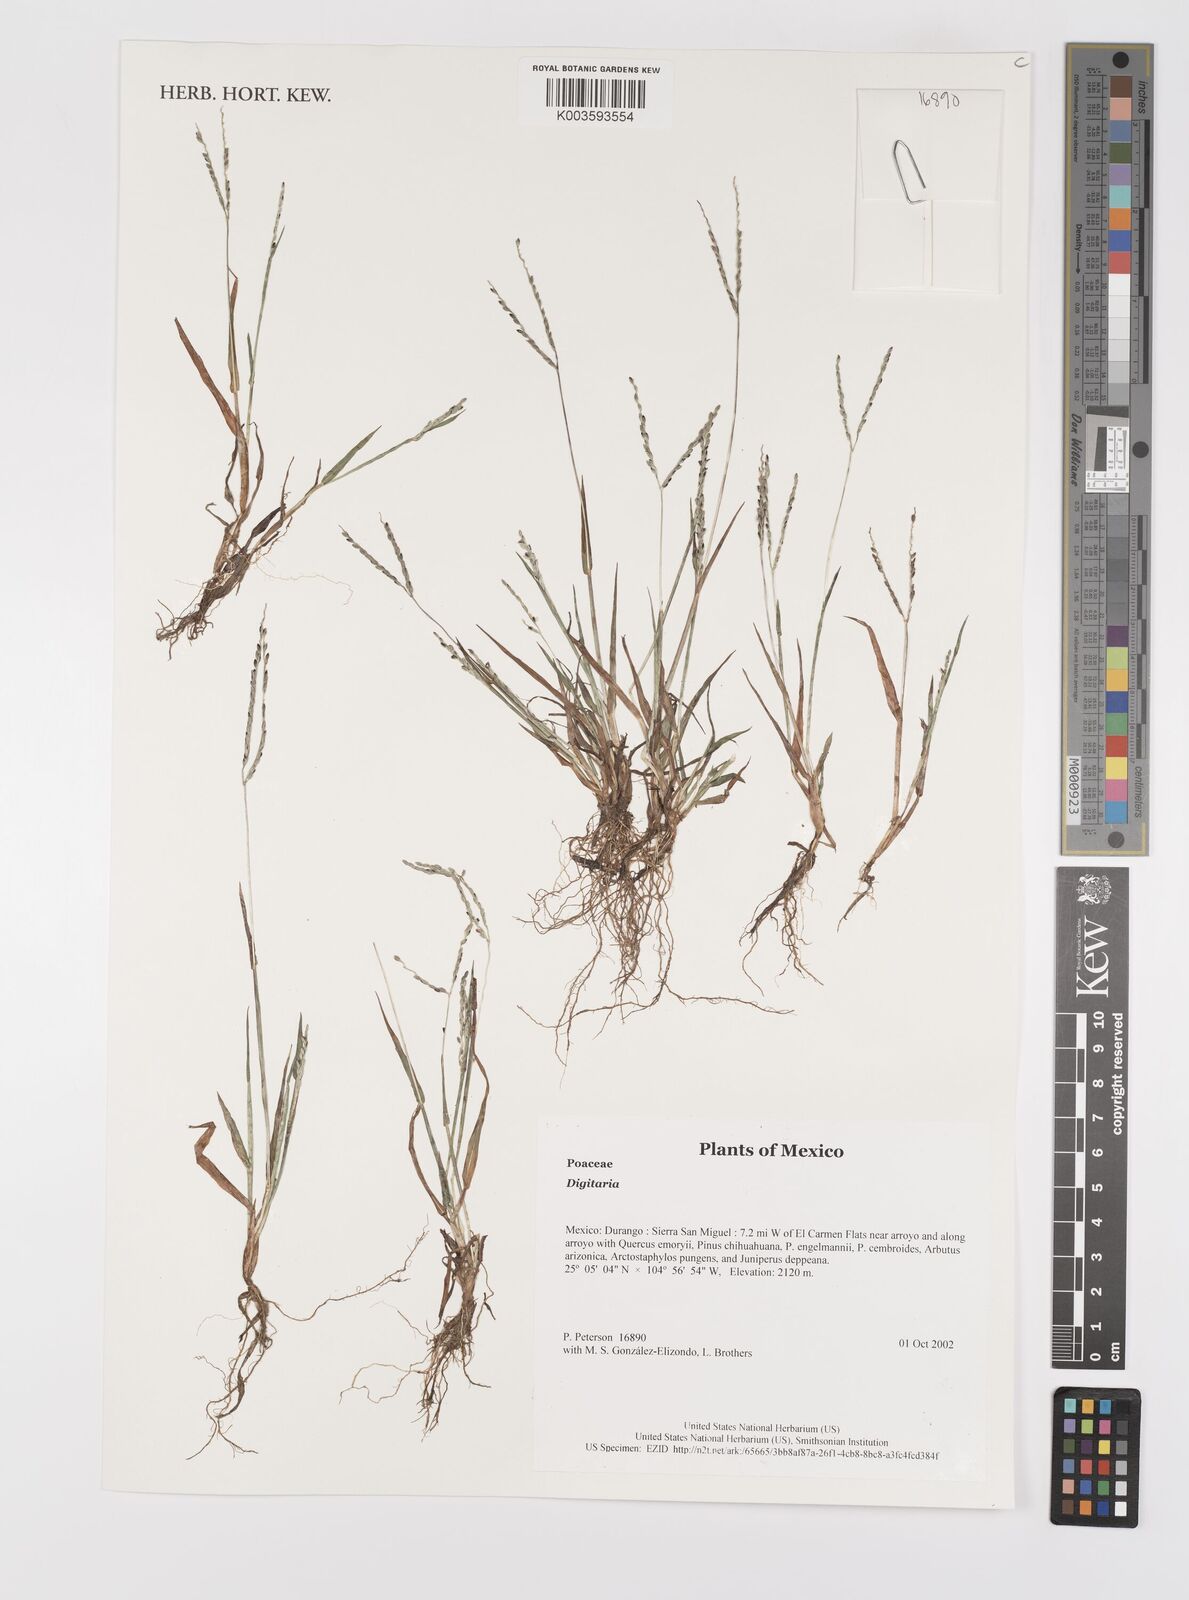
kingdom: Plantae
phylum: Tracheophyta
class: Liliopsida
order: Poales
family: Poaceae
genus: Digitaria
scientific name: Digitaria spec
